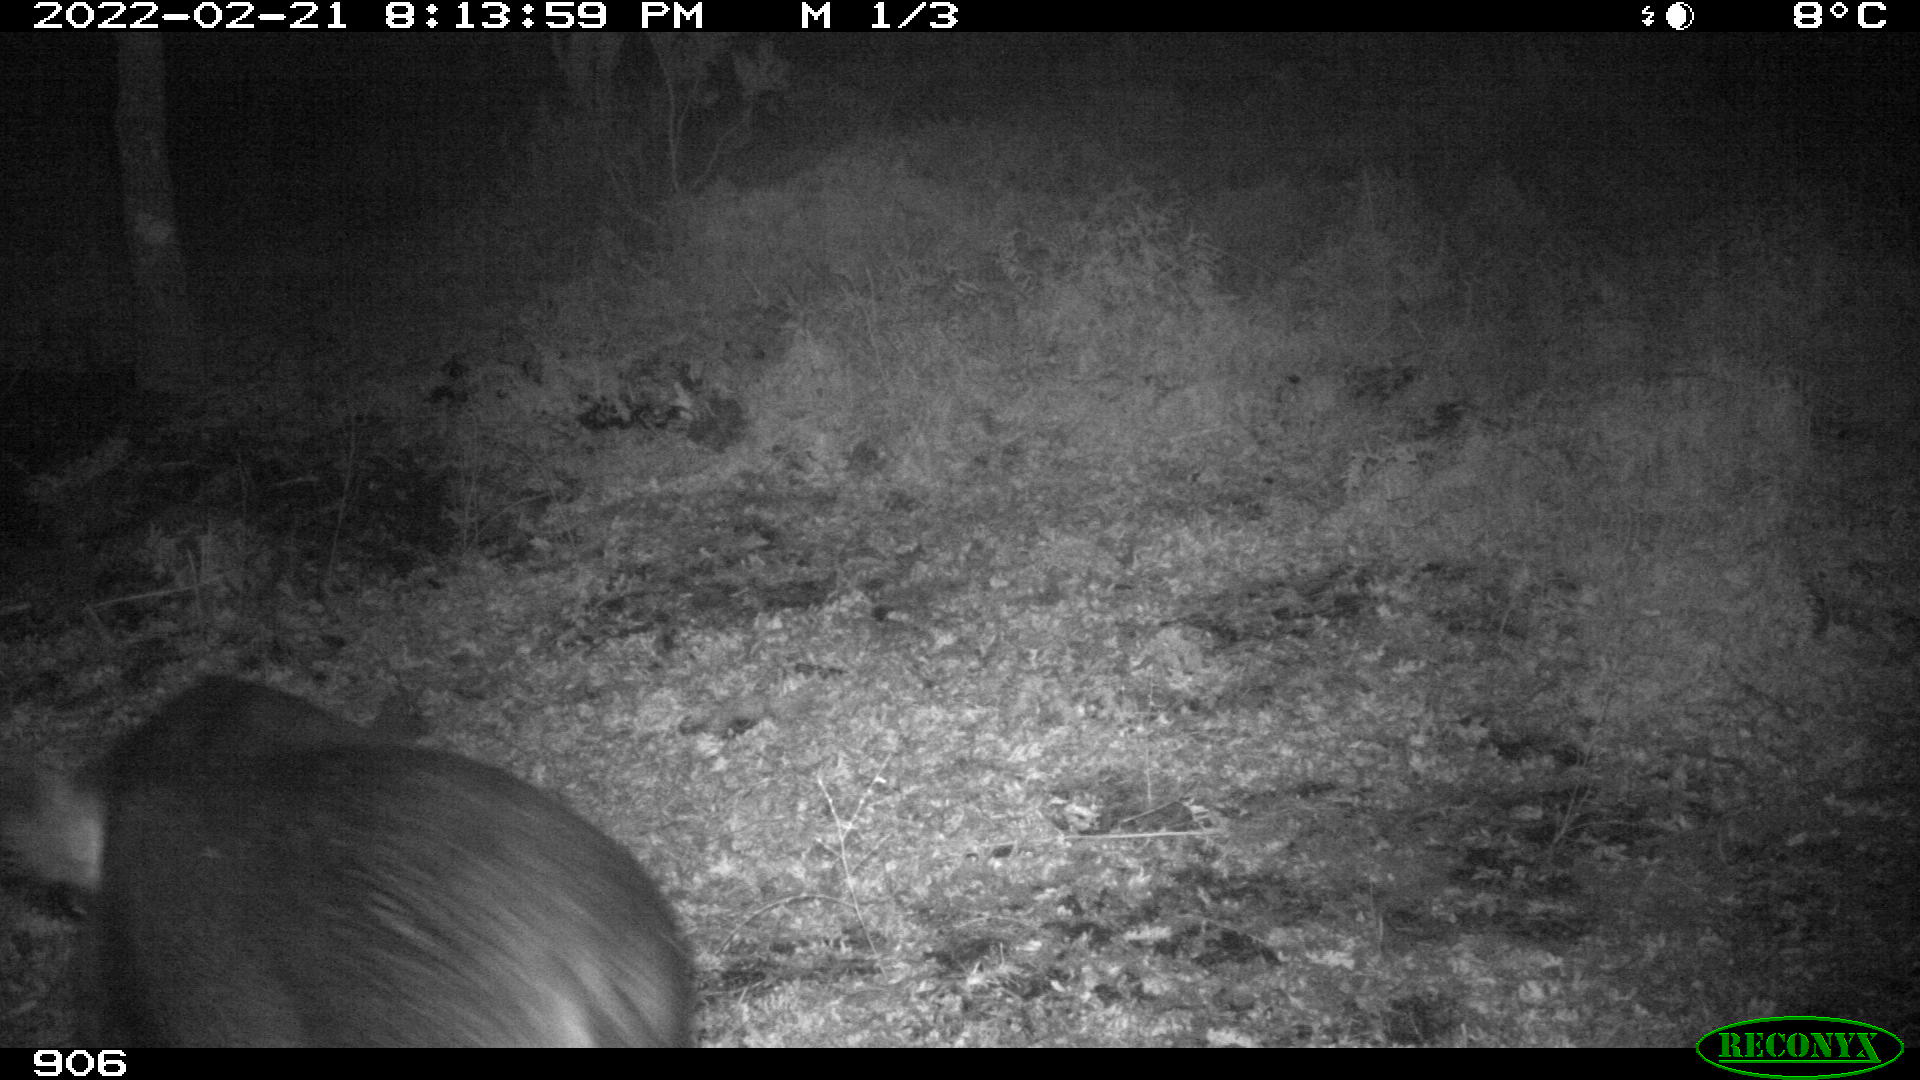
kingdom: Animalia
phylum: Chordata
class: Mammalia
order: Artiodactyla
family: Suidae
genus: Sus
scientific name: Sus scrofa
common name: Wild boar
